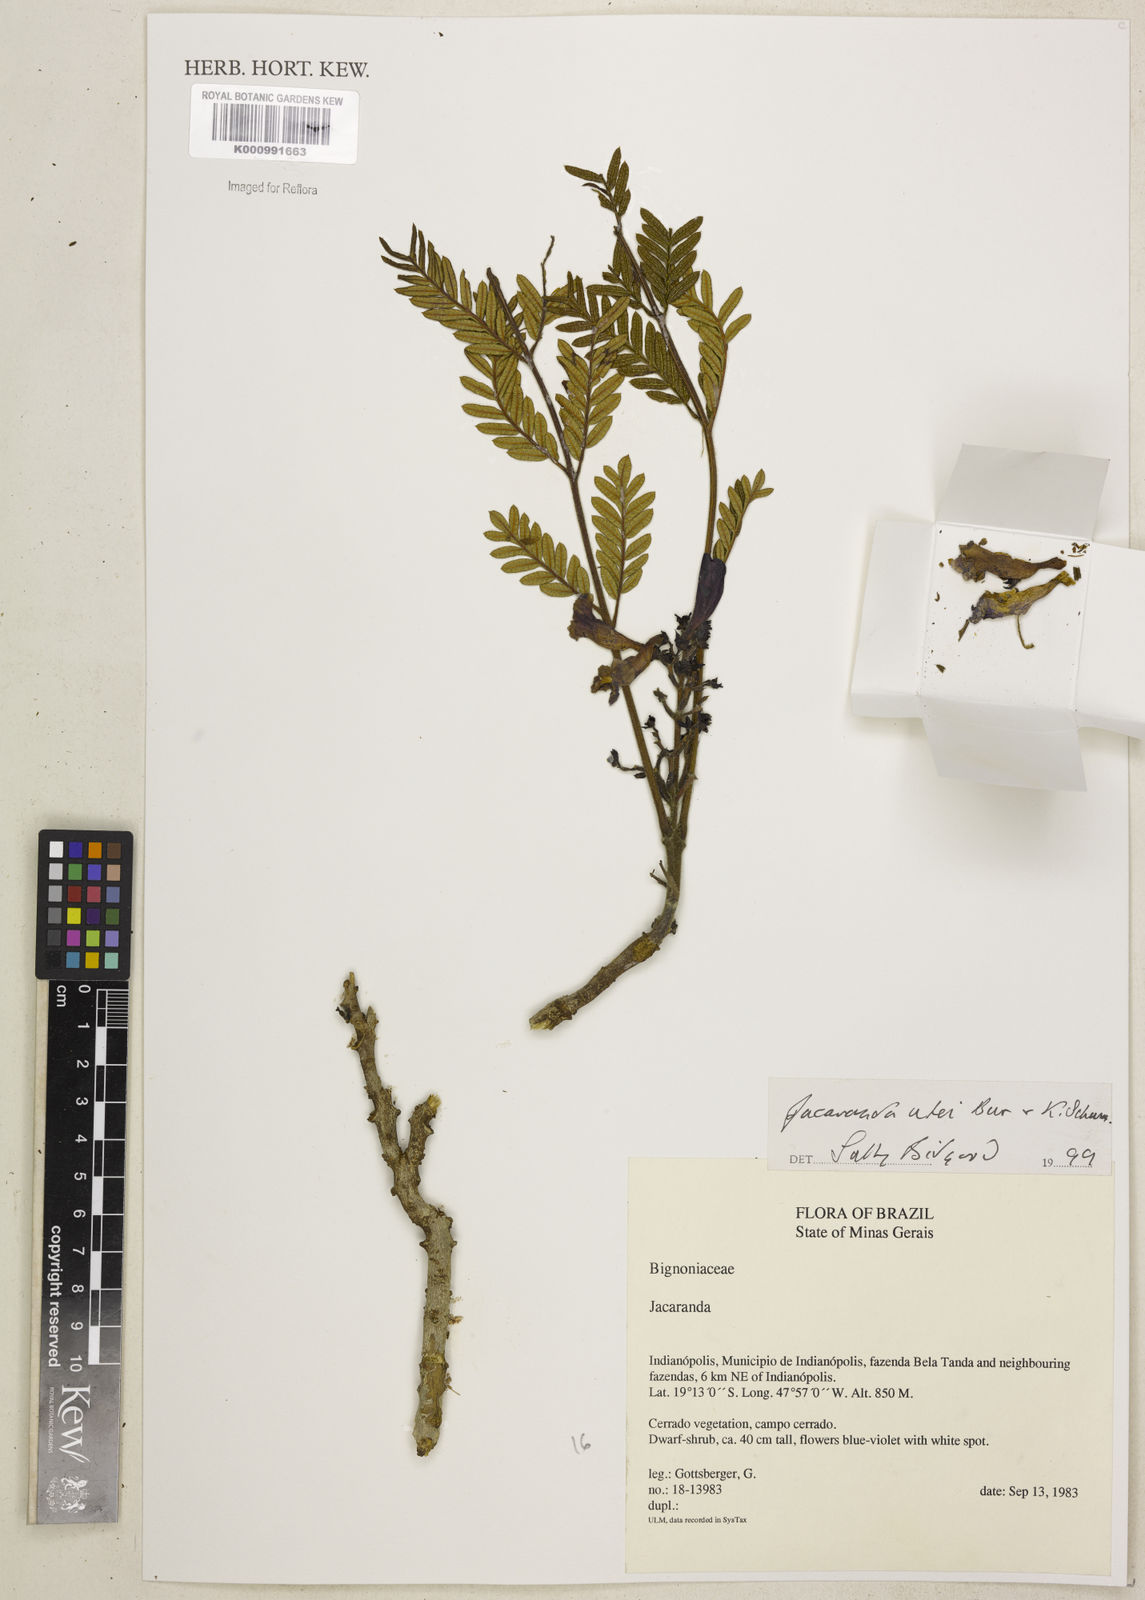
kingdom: Plantae
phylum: Tracheophyta
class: Magnoliopsida
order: Lamiales
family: Bignoniaceae
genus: Jacaranda
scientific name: Jacaranda ulei
